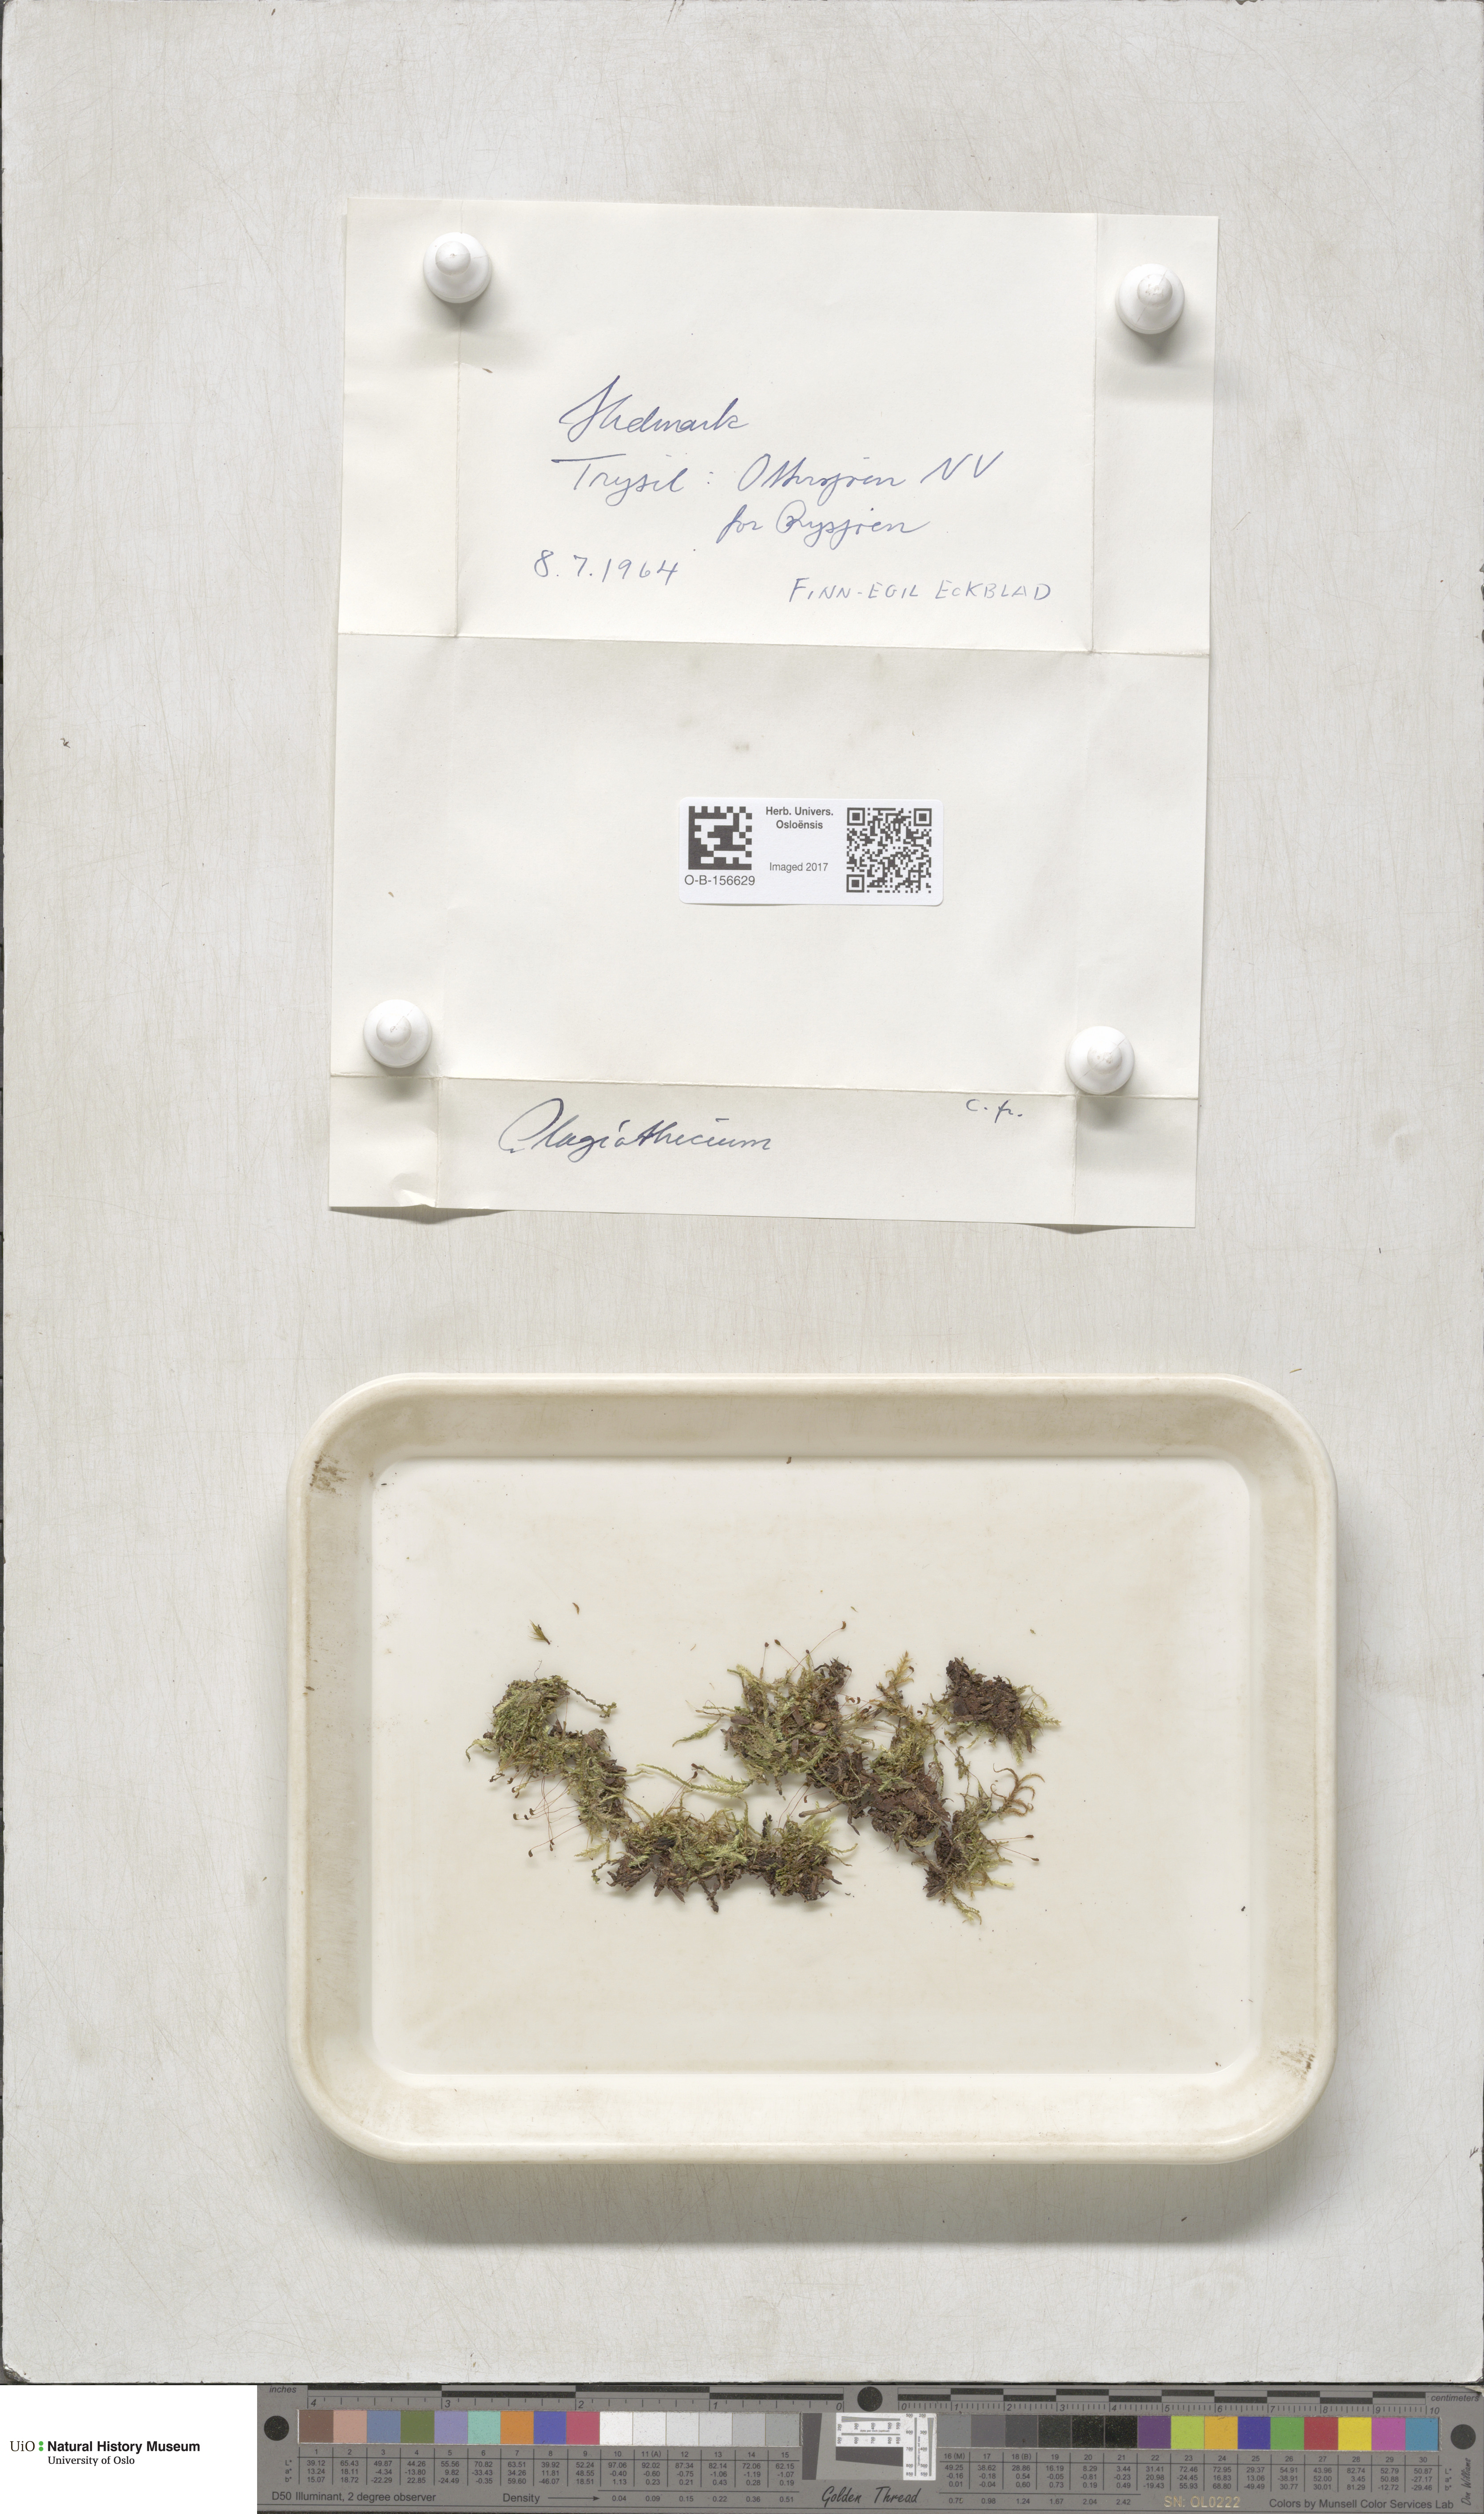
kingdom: Plantae
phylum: Bryophyta
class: Bryopsida
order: Hypnales
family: Plagiotheciaceae
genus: Plagiothecium
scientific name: Plagiothecium
